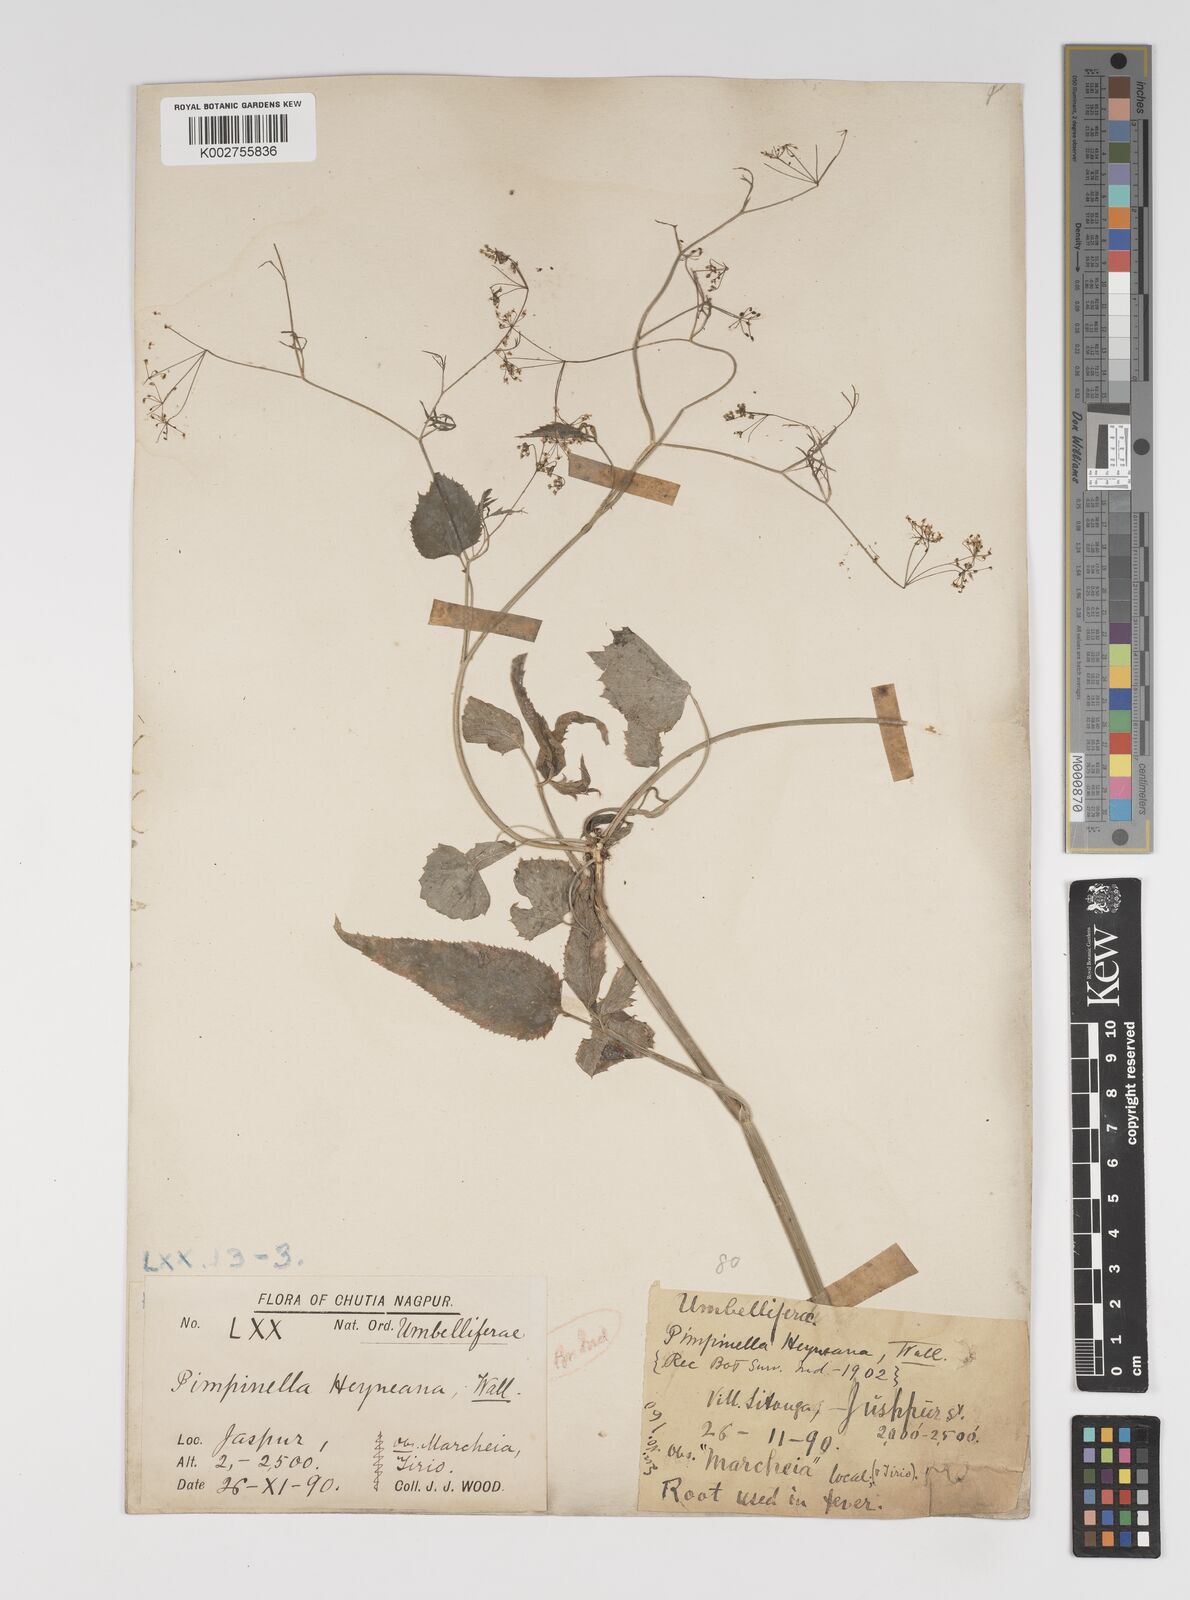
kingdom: Plantae
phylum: Tracheophyta
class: Magnoliopsida
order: Apiales
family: Apiaceae
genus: Pimpinella
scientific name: Pimpinella heyneana
